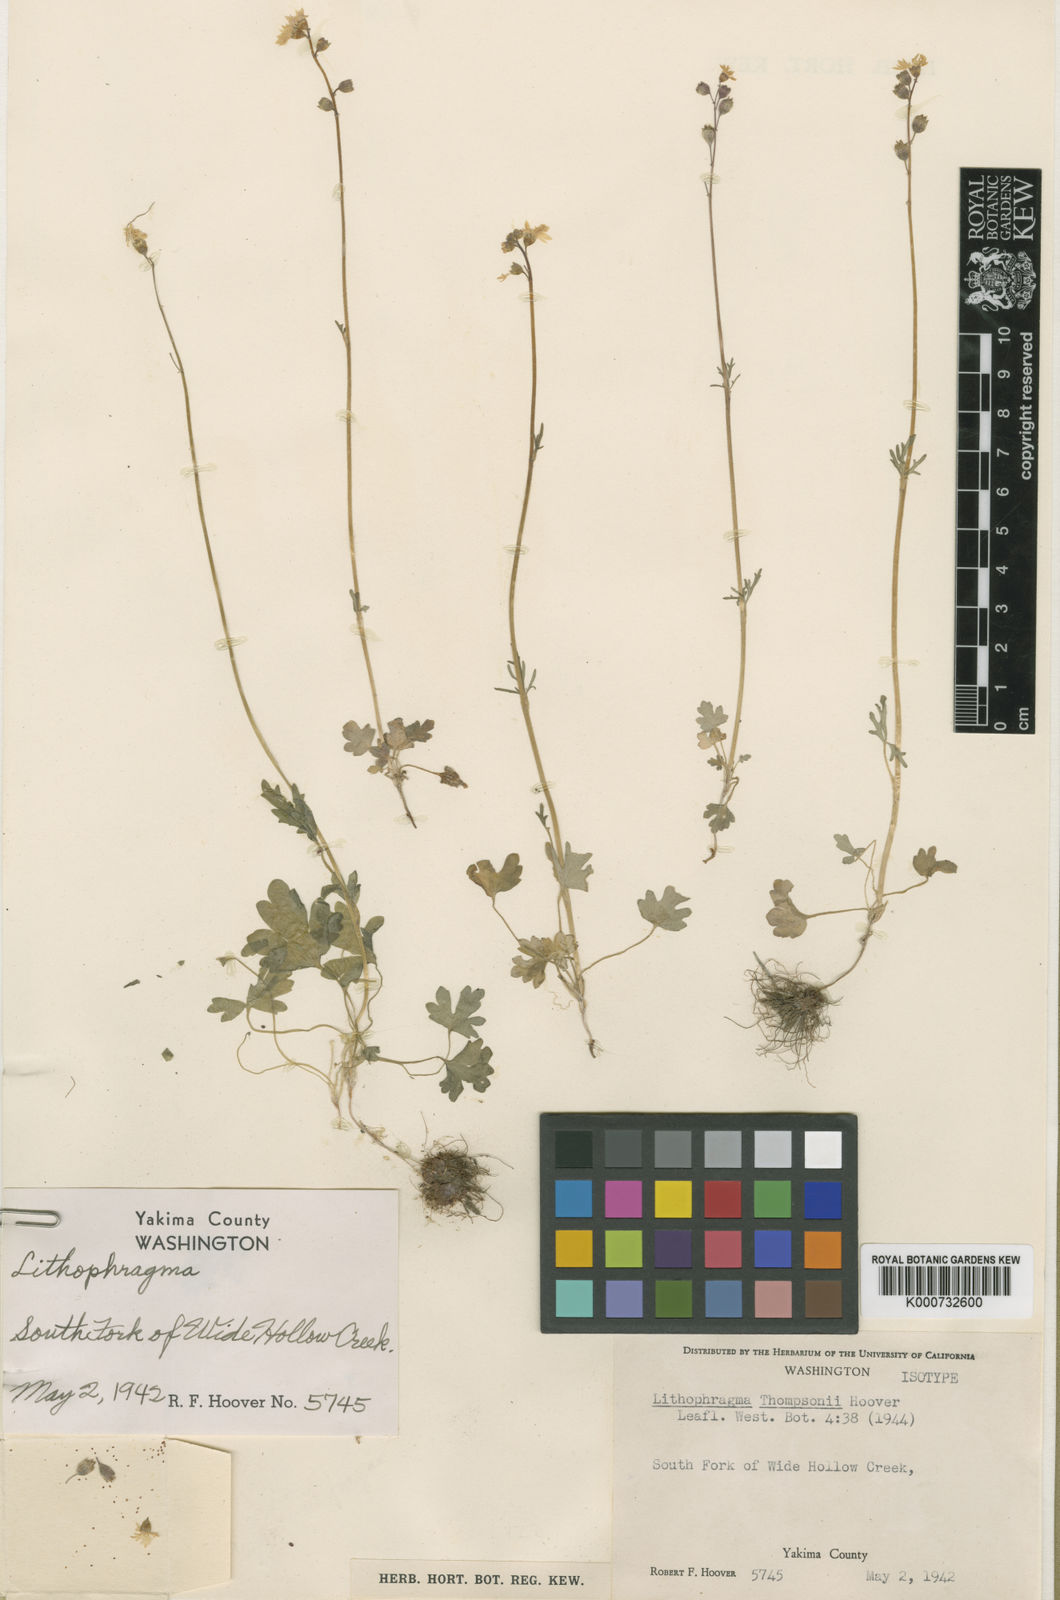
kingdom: Plantae
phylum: Tracheophyta
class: Magnoliopsida
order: Saxifragales
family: Saxifragaceae
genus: Lithophragma
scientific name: Lithophragma
